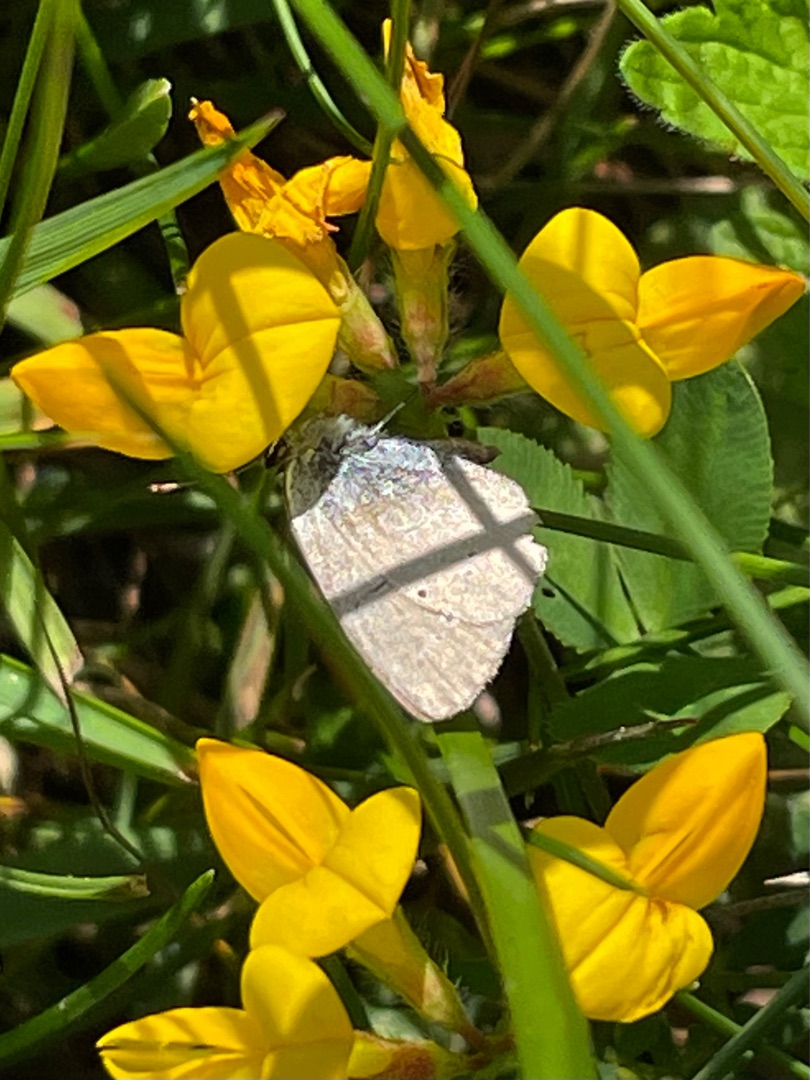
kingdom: Animalia
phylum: Arthropoda
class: Insecta
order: Lepidoptera
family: Lycaenidae
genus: Cupido
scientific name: Cupido minimus
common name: Dværgblåfugl
